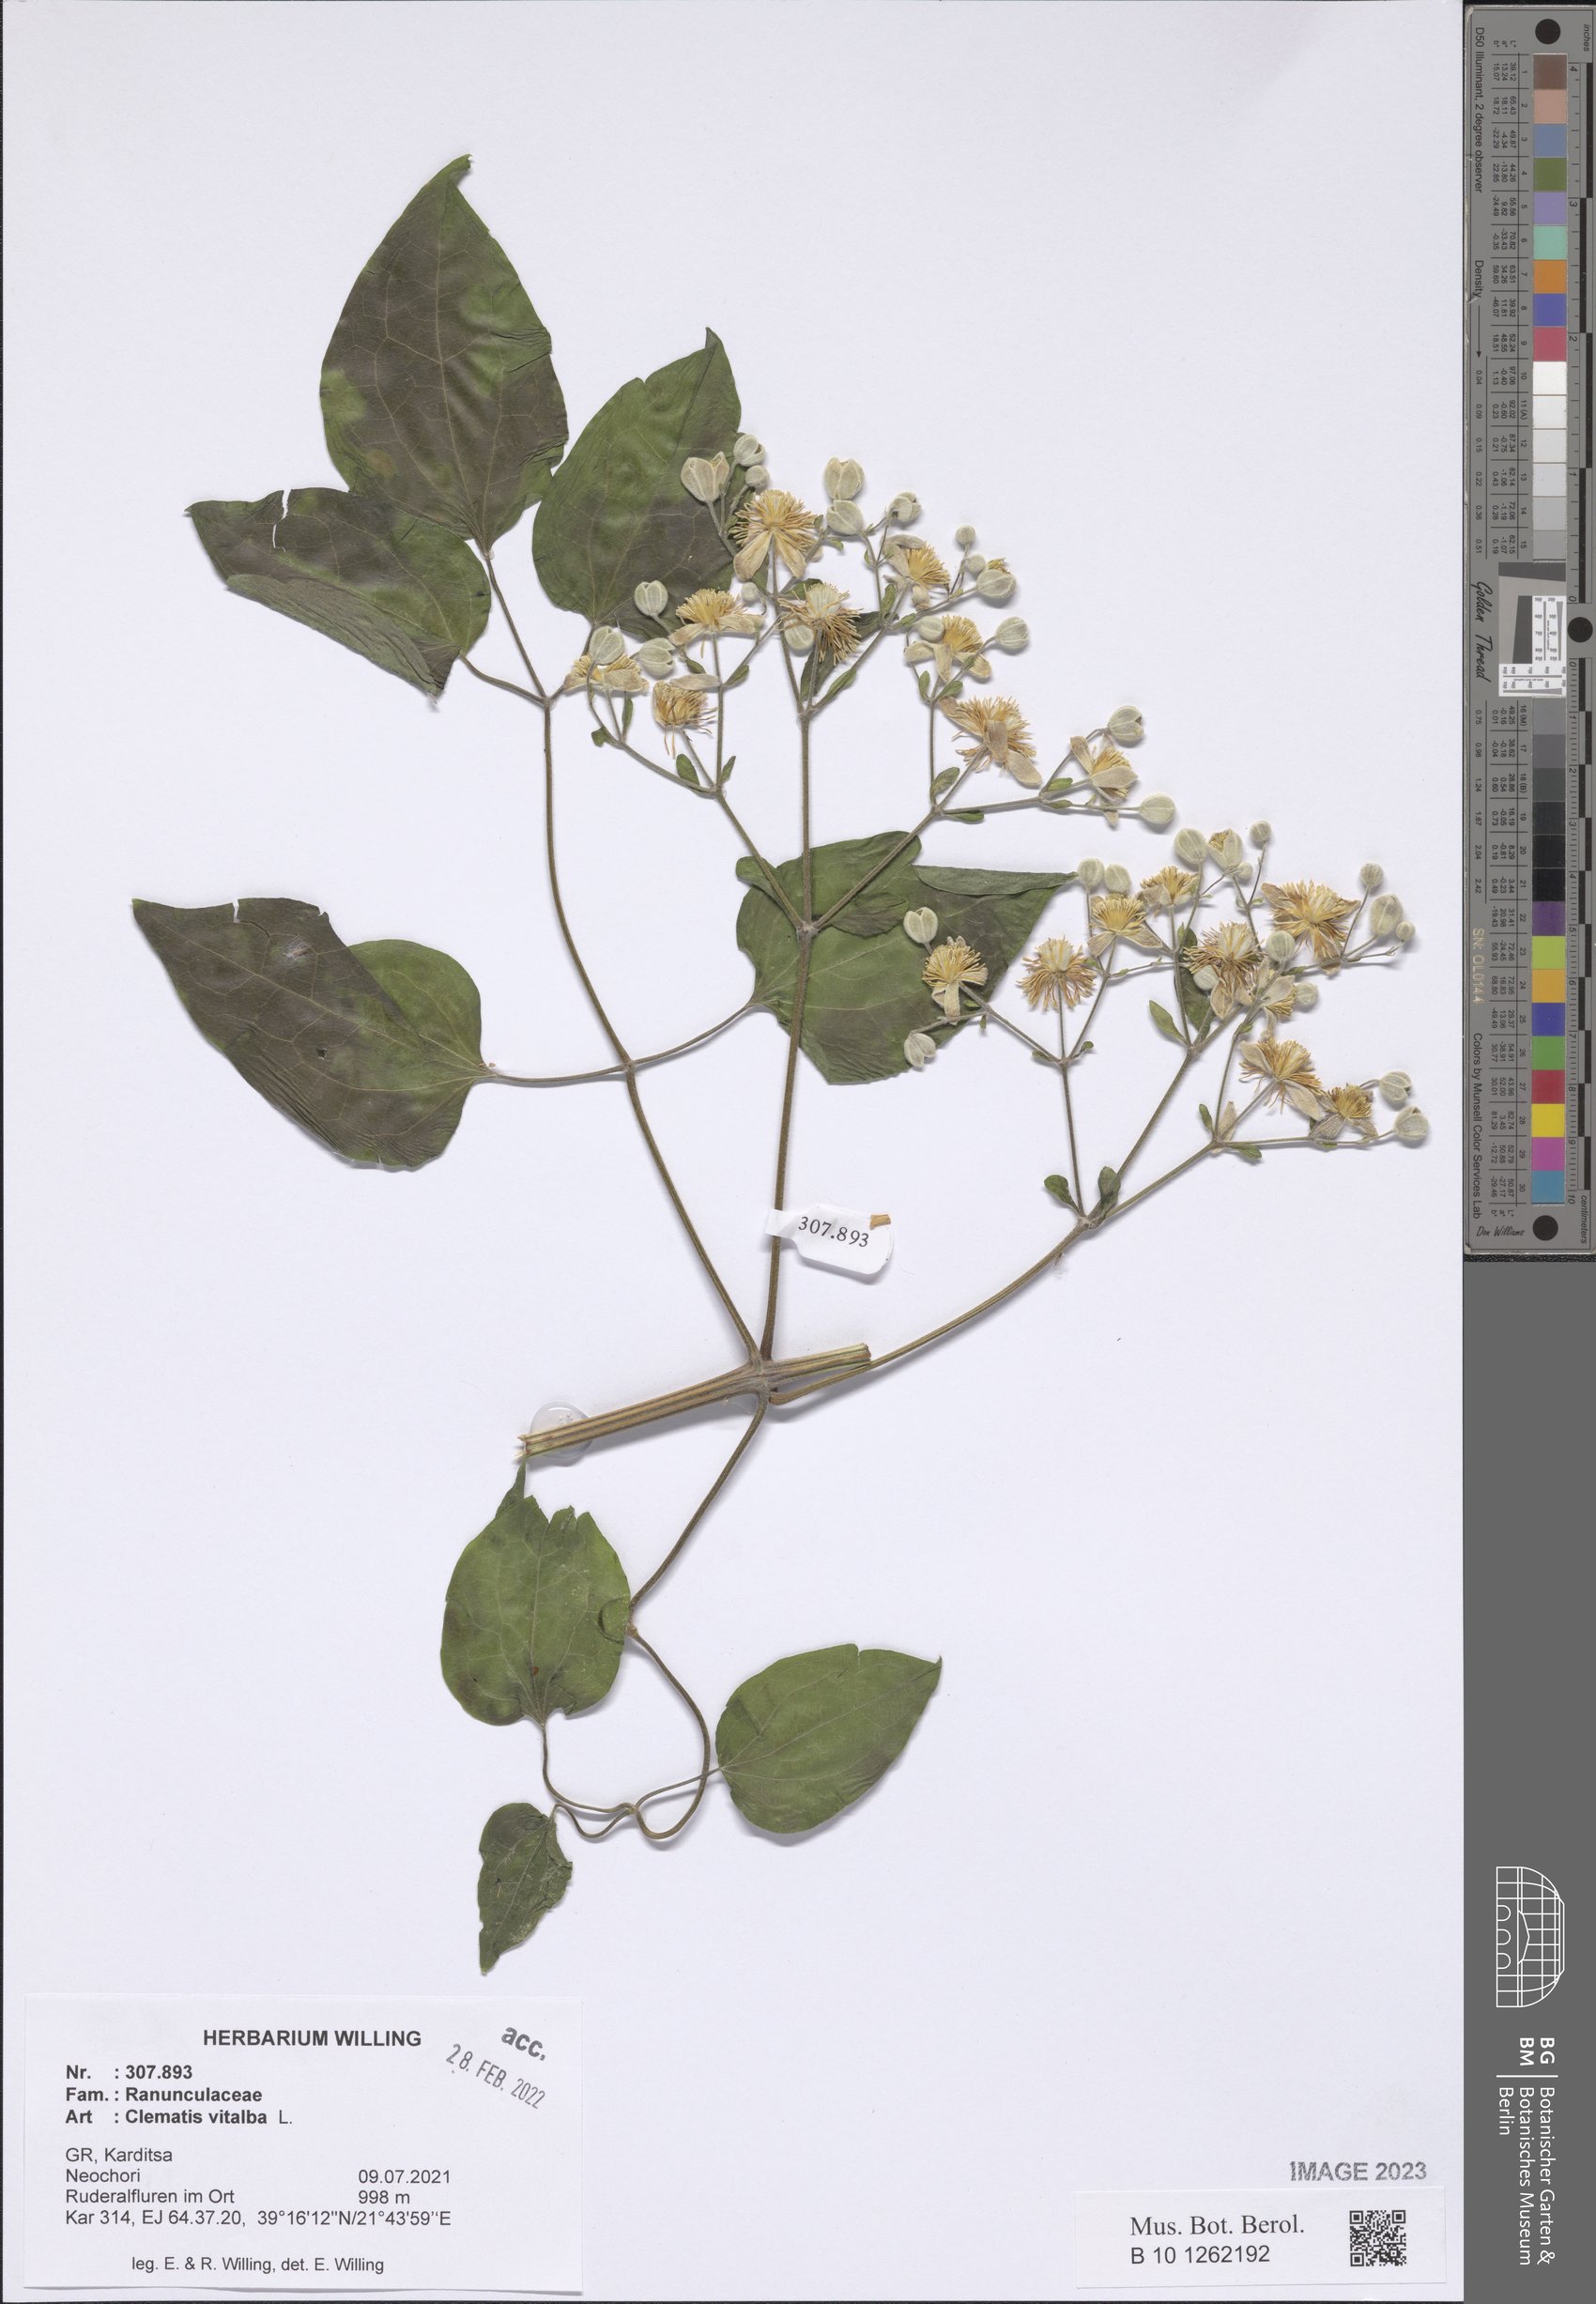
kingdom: Plantae
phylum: Tracheophyta
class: Magnoliopsida
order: Ranunculales
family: Ranunculaceae
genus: Clematis
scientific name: Clematis vitalba
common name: Evergreen clematis
